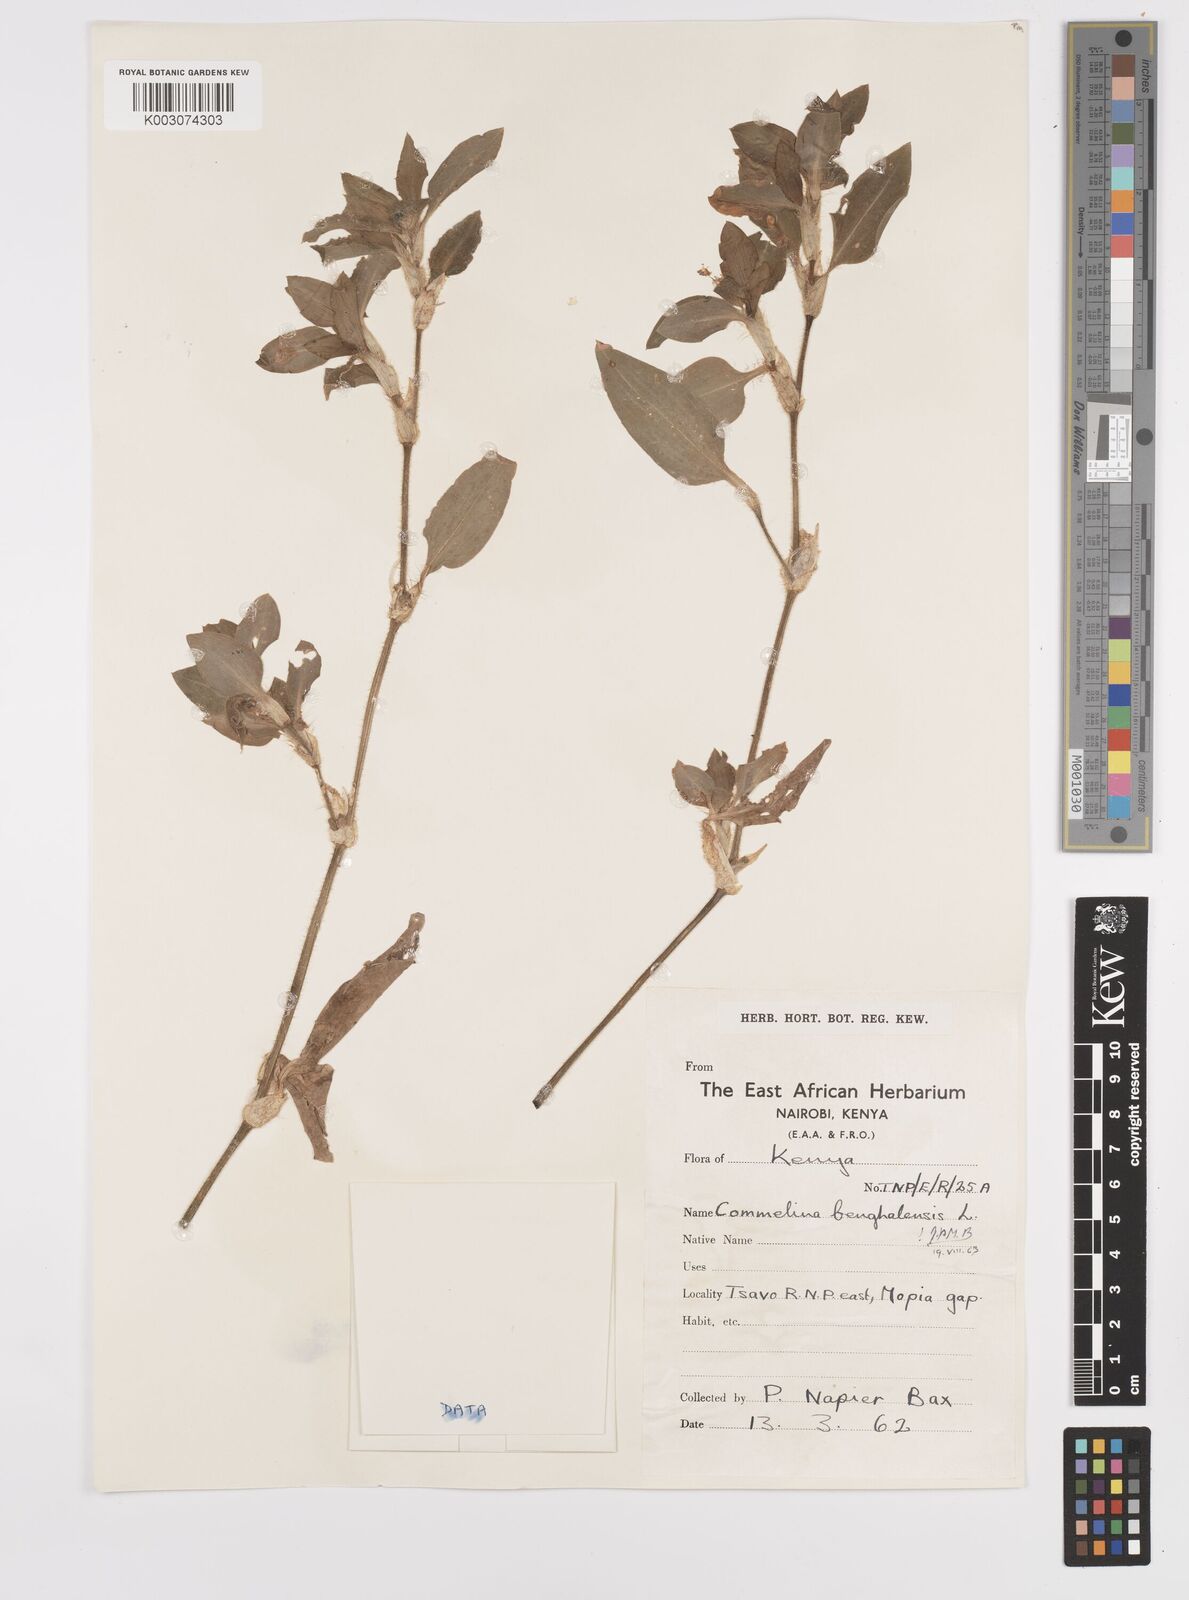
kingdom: Plantae
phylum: Tracheophyta
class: Liliopsida
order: Commelinales
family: Commelinaceae
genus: Commelina
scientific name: Commelina benghalensis
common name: Jio
